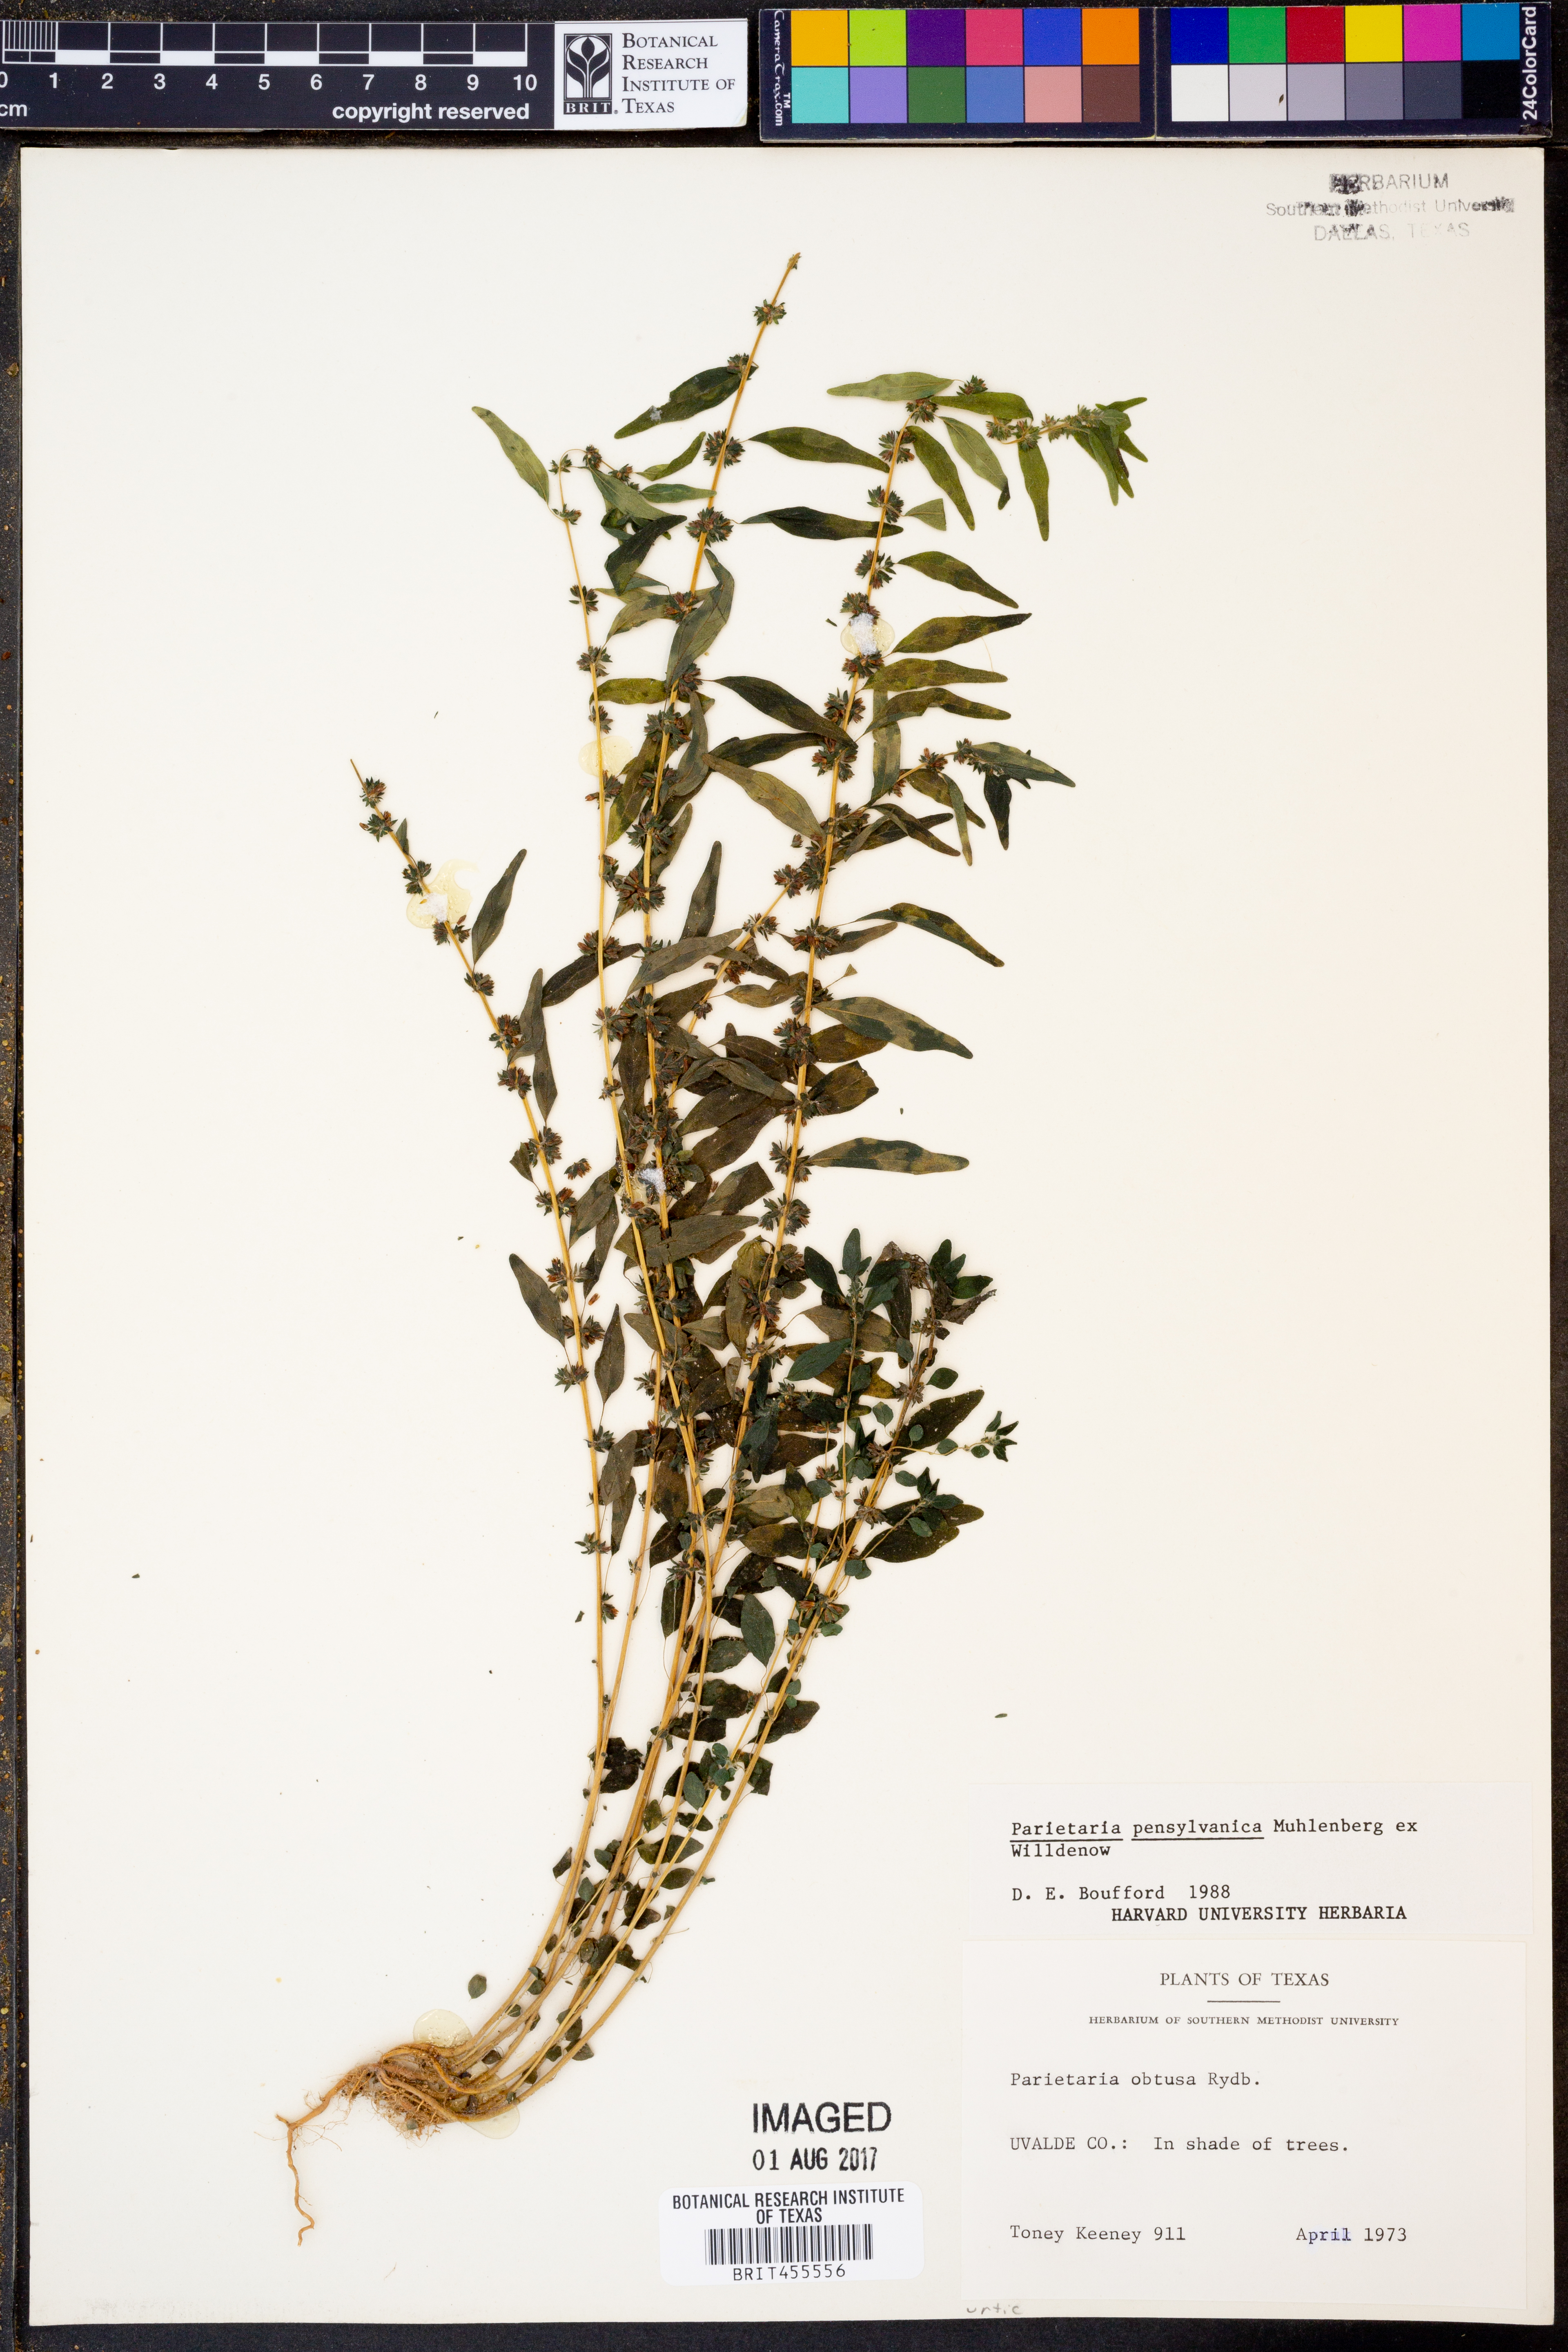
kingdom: Plantae
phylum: Tracheophyta
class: Magnoliopsida
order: Rosales
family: Urticaceae
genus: Parietaria
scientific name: Parietaria pensylvanica
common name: Pennsylvania pellitory
